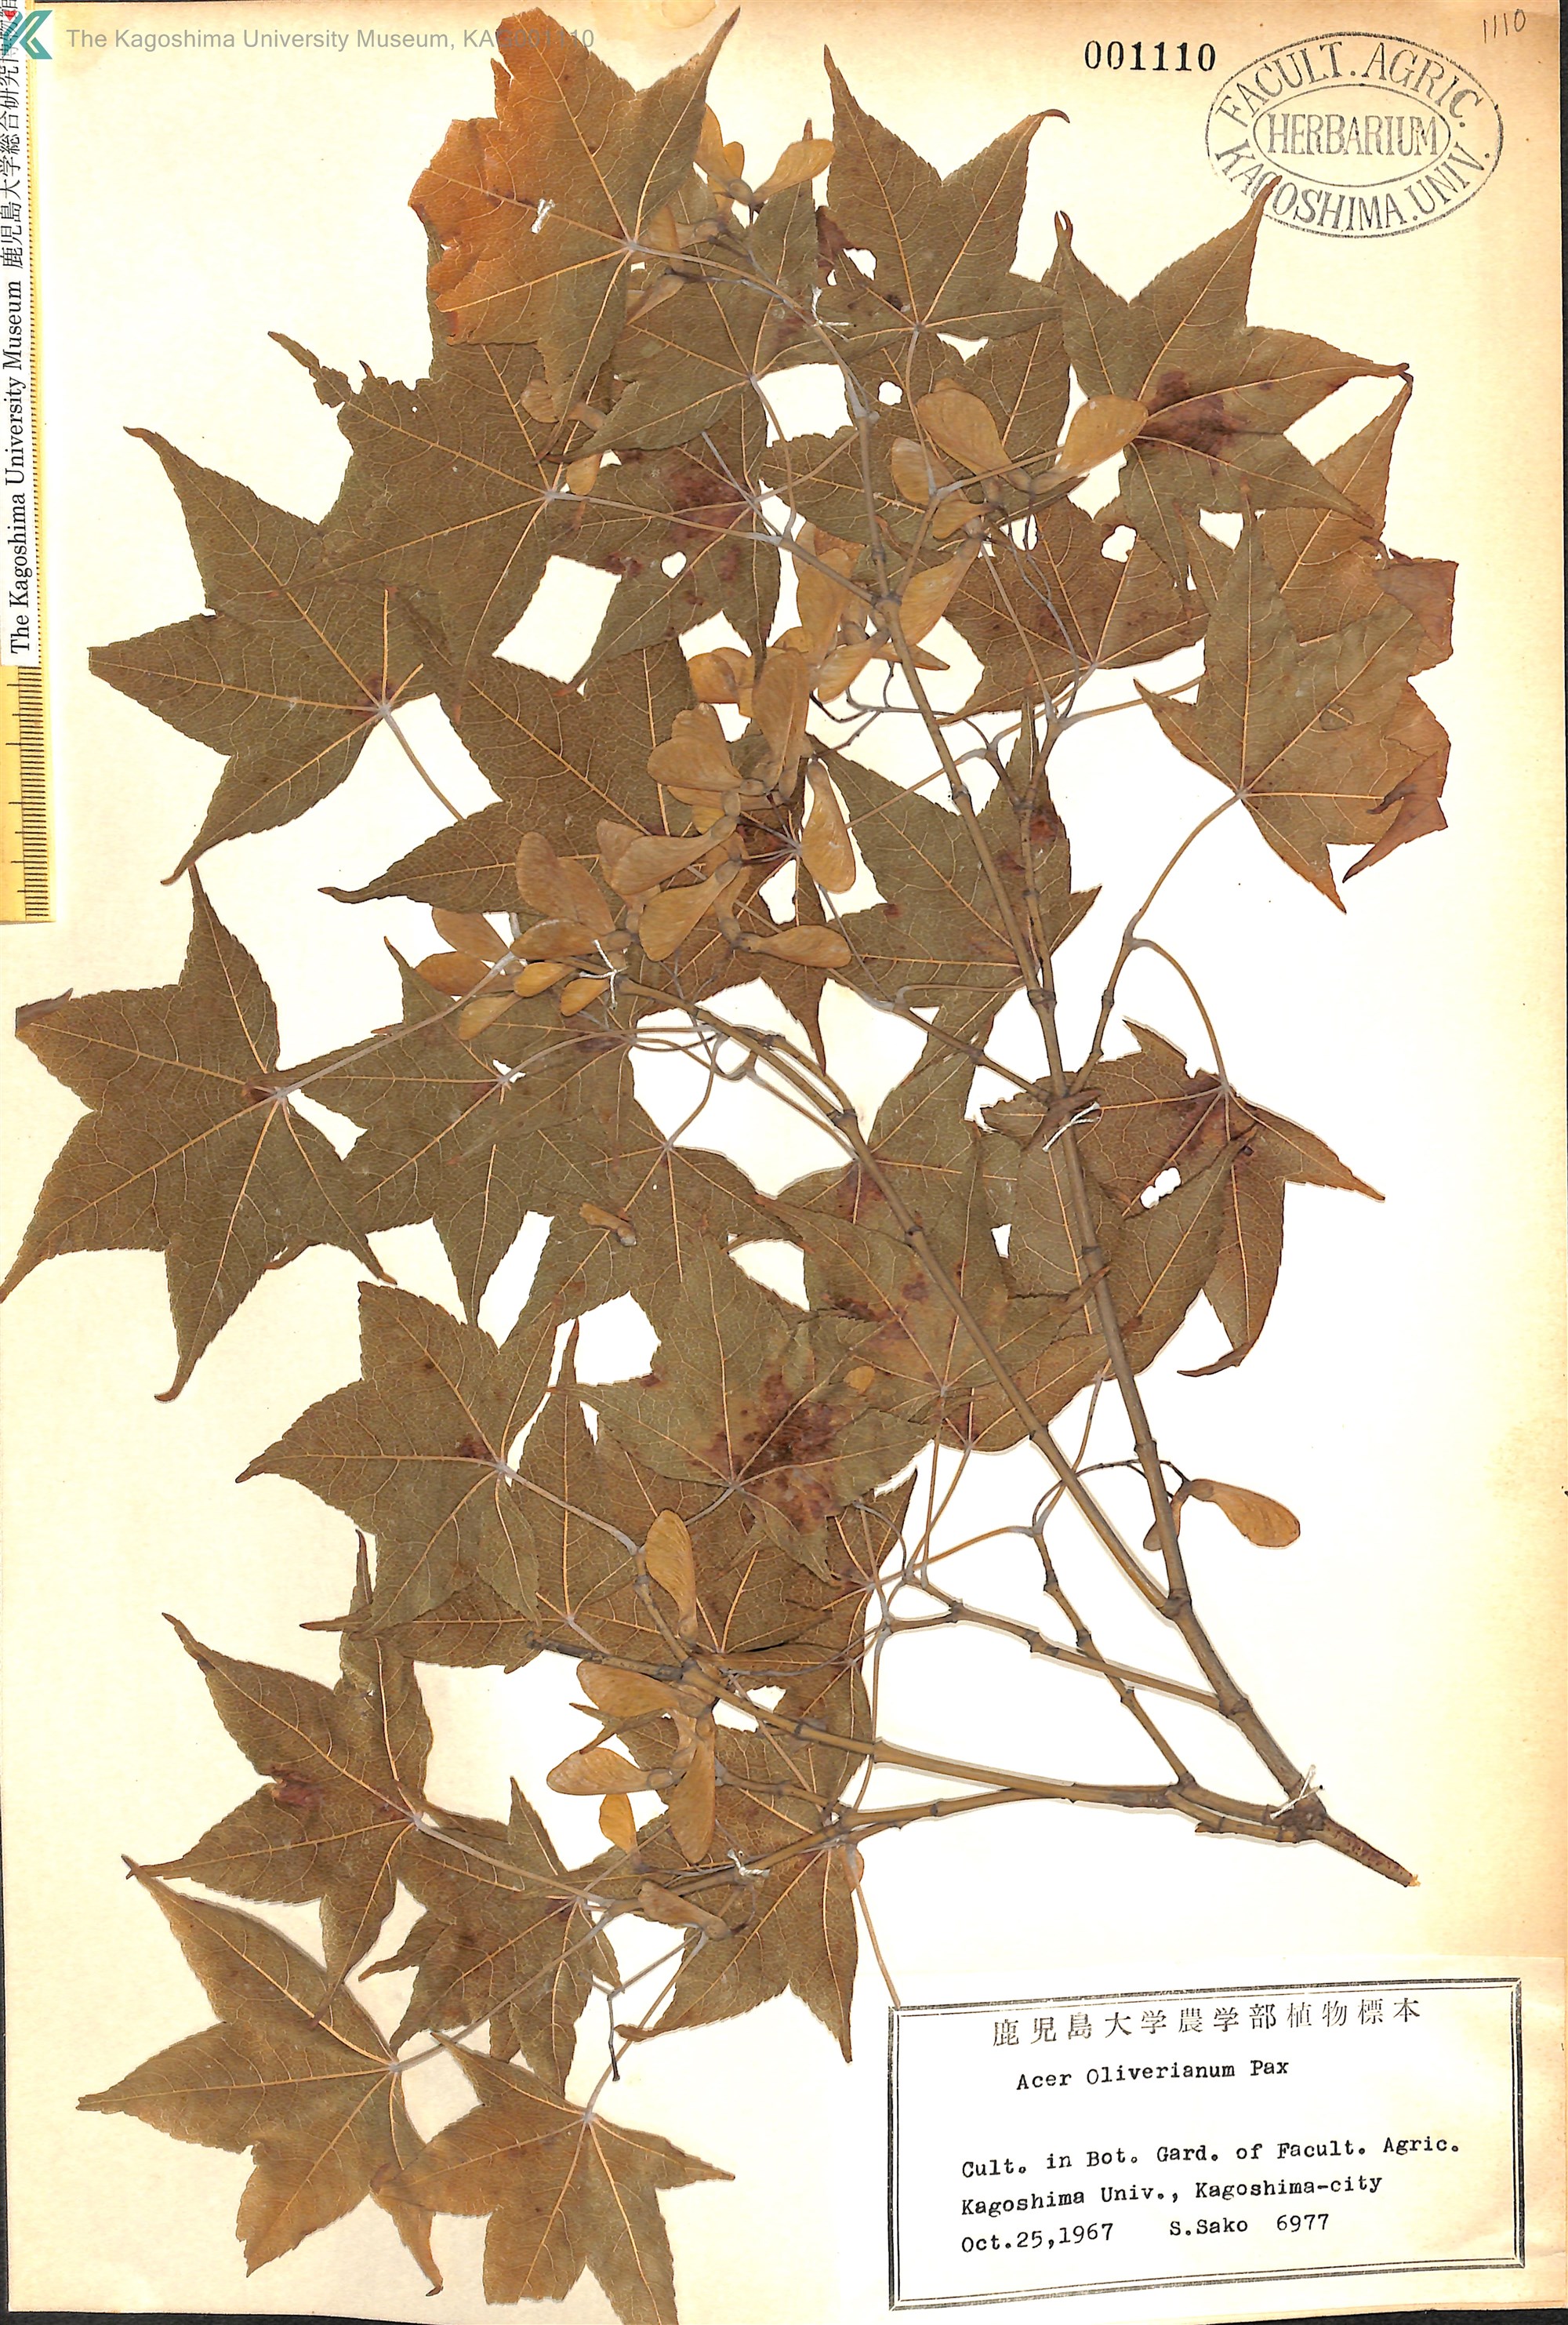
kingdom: Plantae
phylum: Tracheophyta
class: Magnoliopsida
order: Sapindales
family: Sapindaceae
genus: Acer
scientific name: Acer oliverianum
